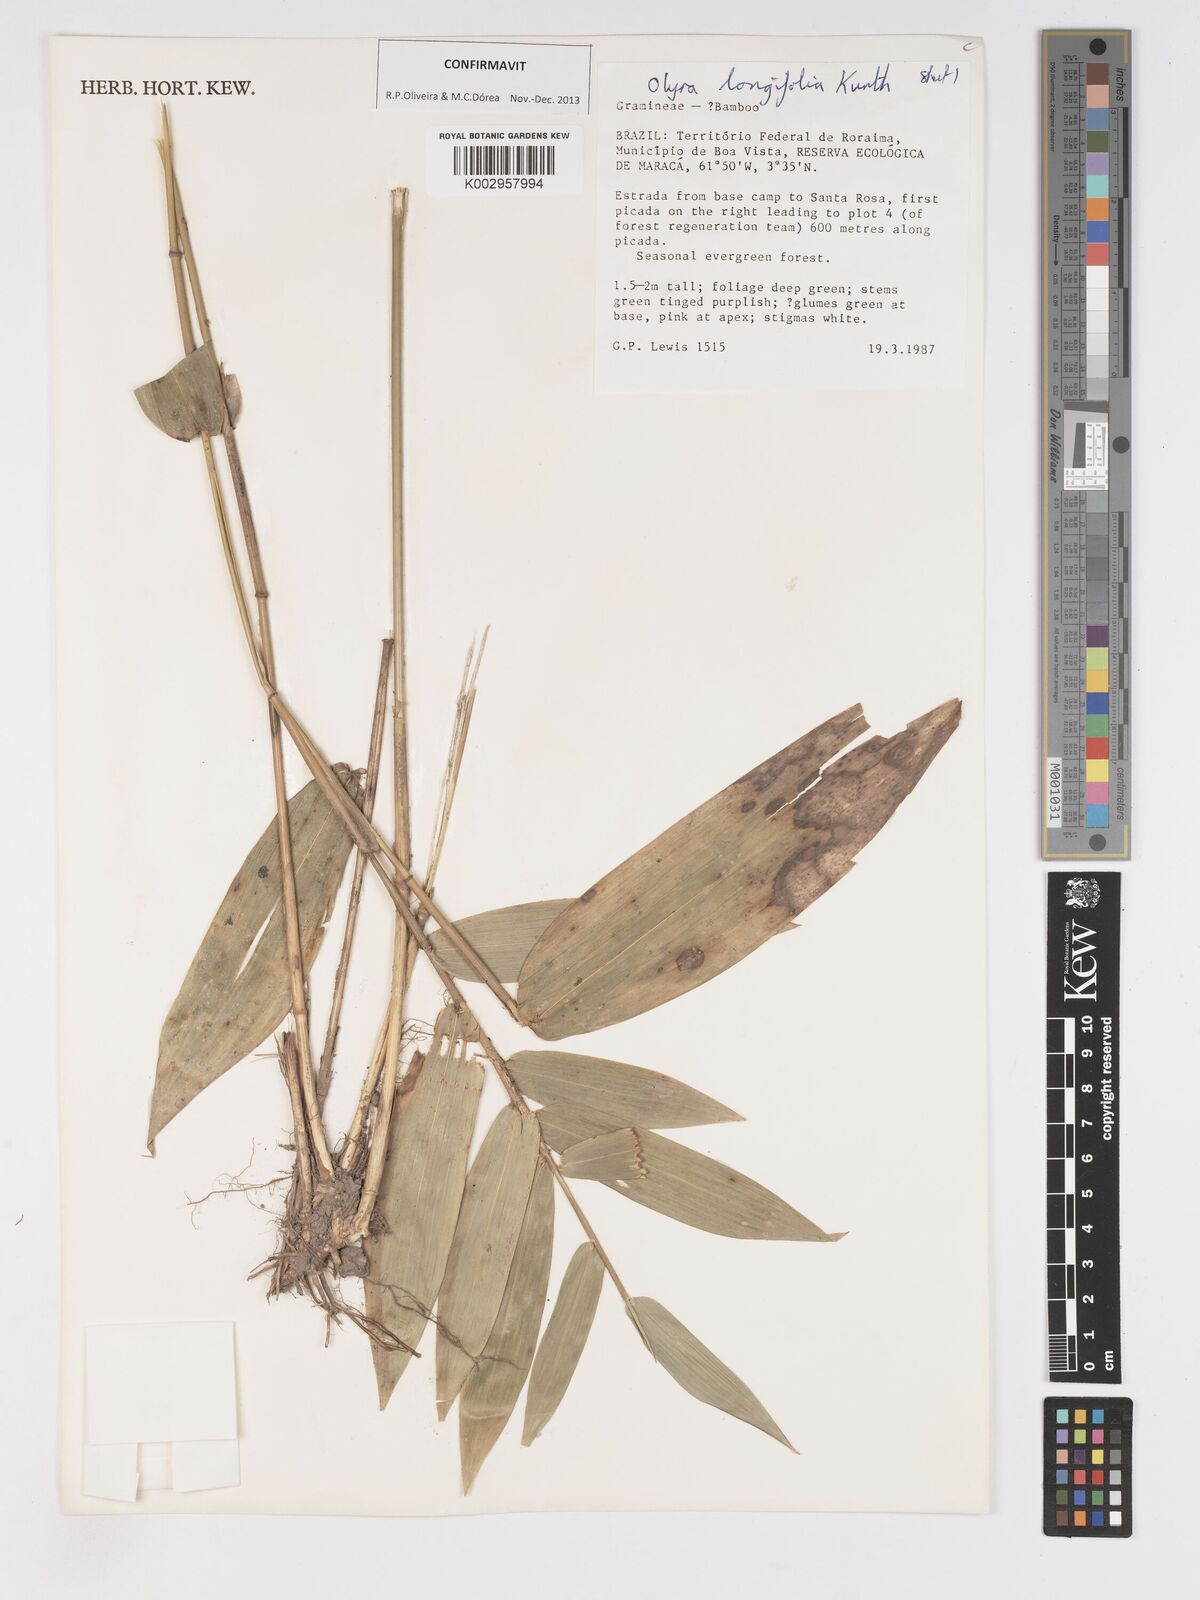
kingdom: Plantae
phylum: Tracheophyta
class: Liliopsida
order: Poales
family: Poaceae
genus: Olyra
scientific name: Olyra longifolia
